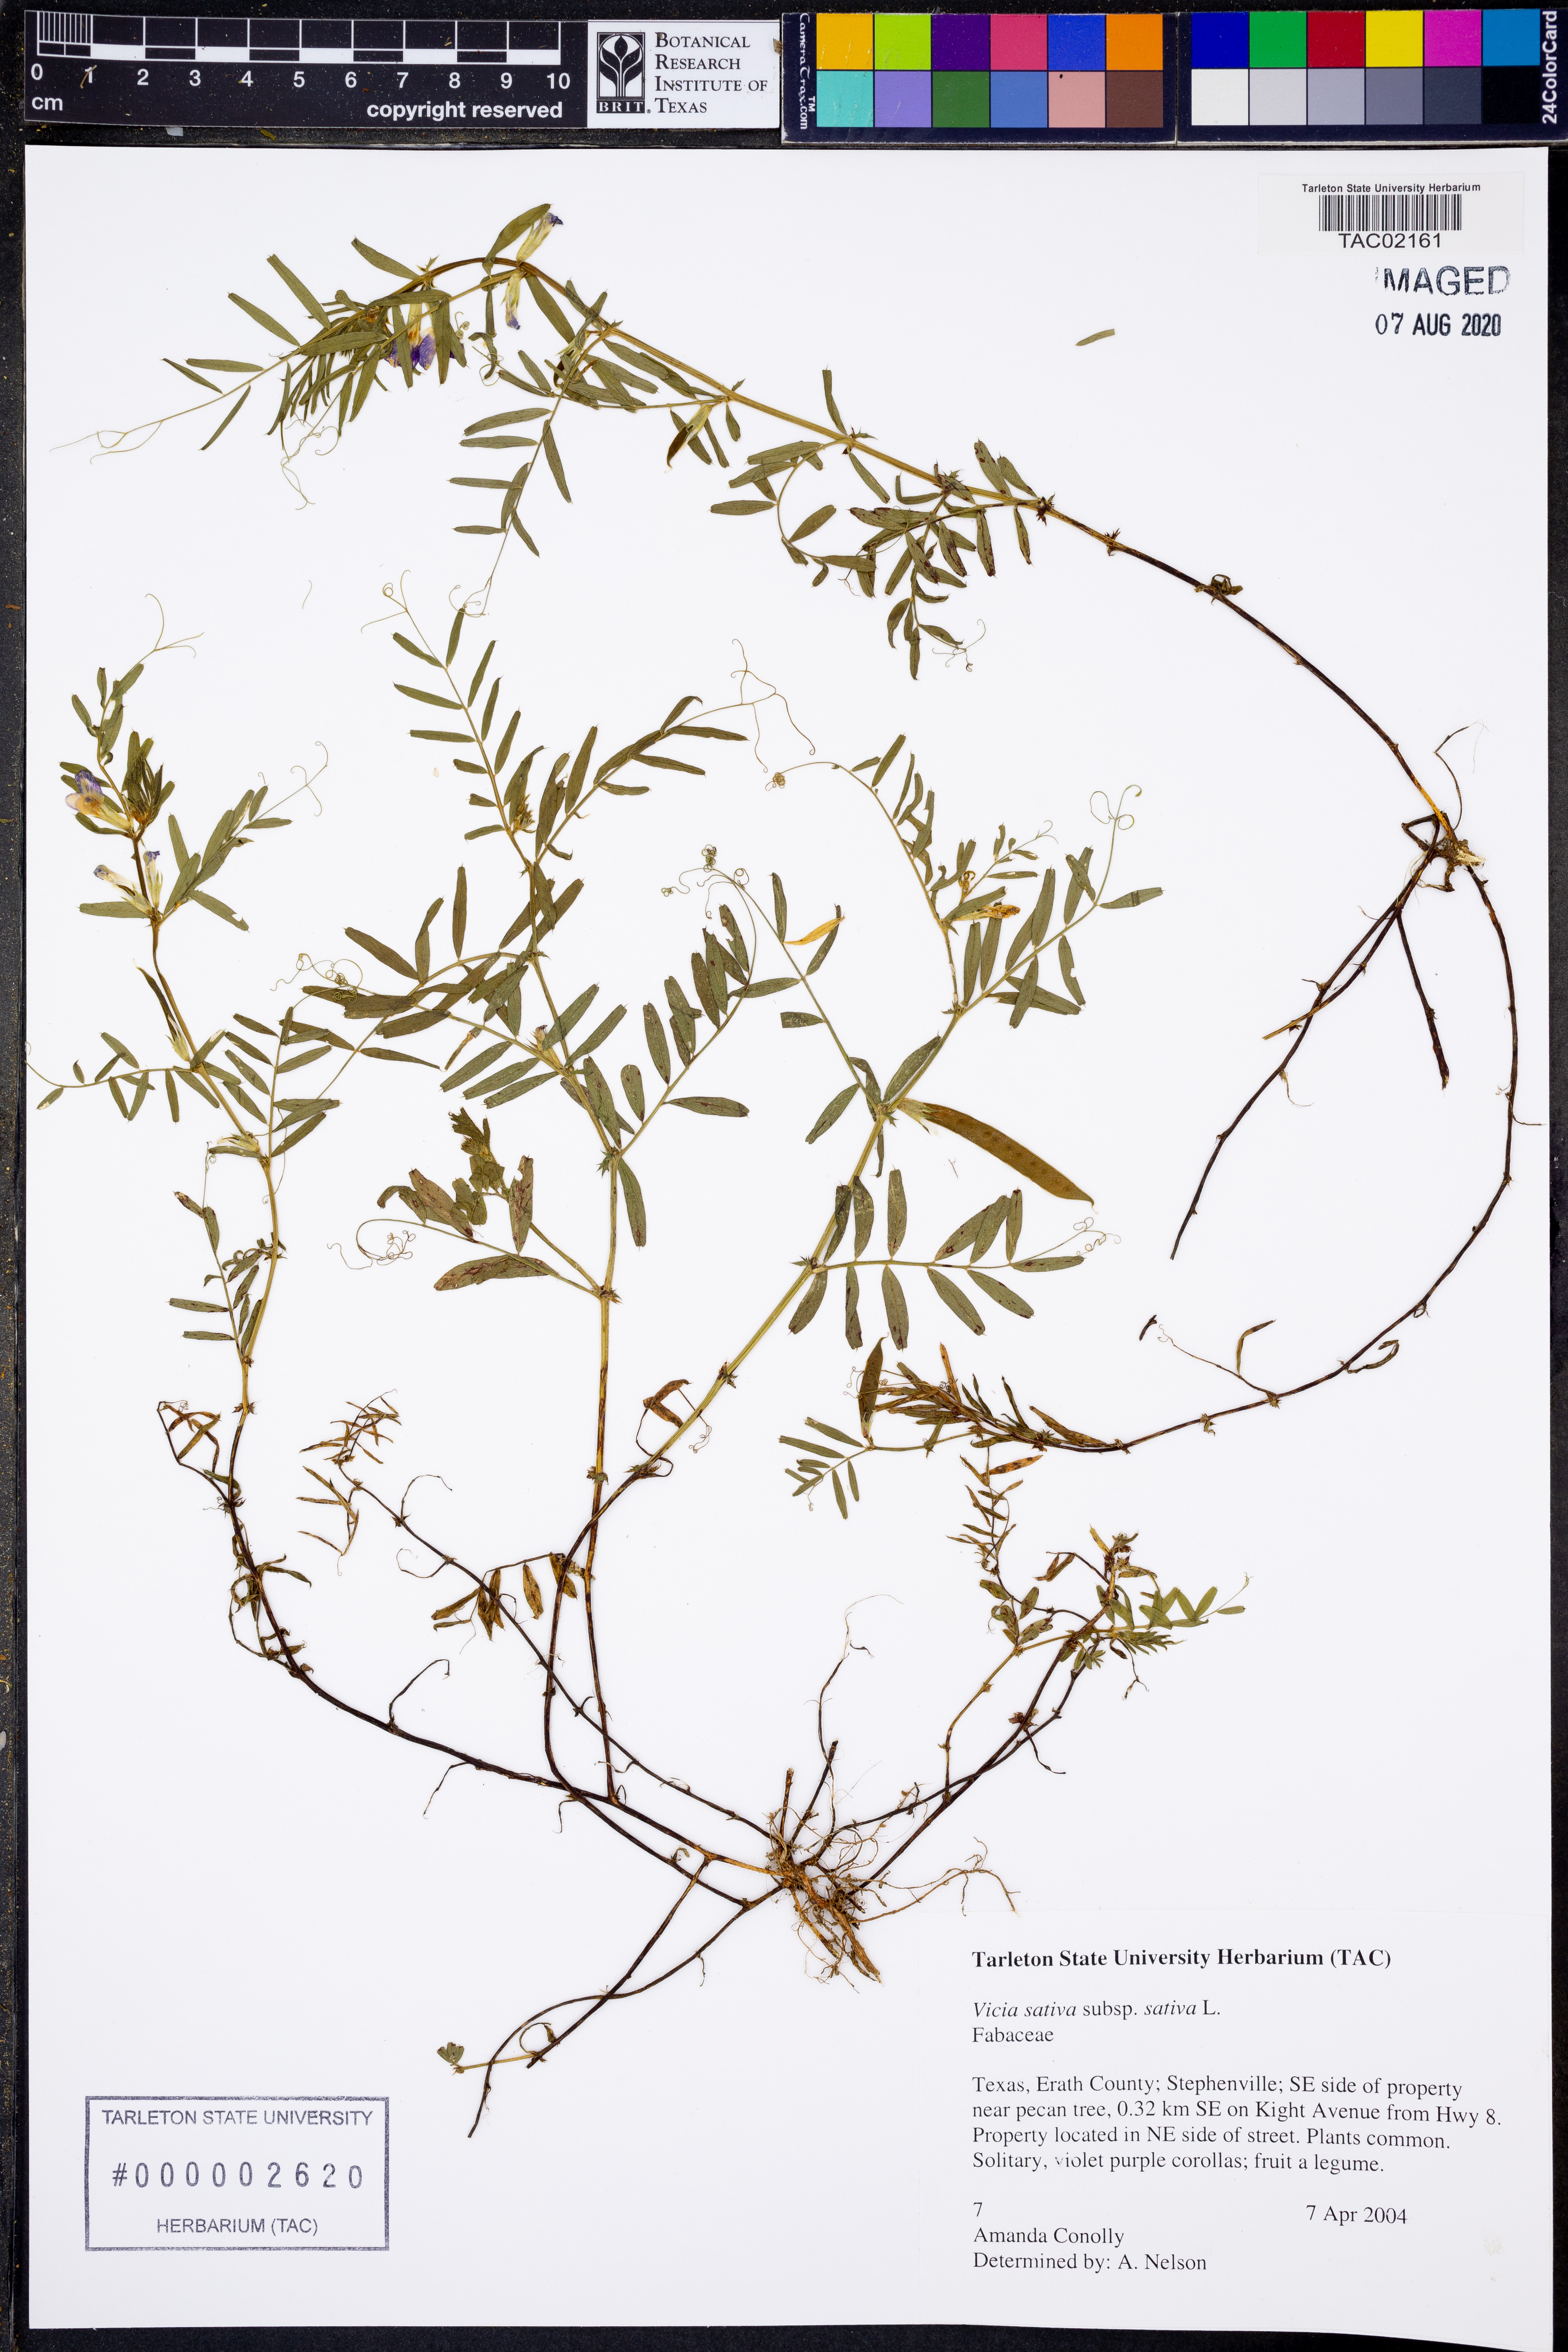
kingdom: Plantae
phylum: Tracheophyta
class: Magnoliopsida
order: Fabales
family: Fabaceae
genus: Vicia
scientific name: Vicia sativa
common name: Garden vetch
